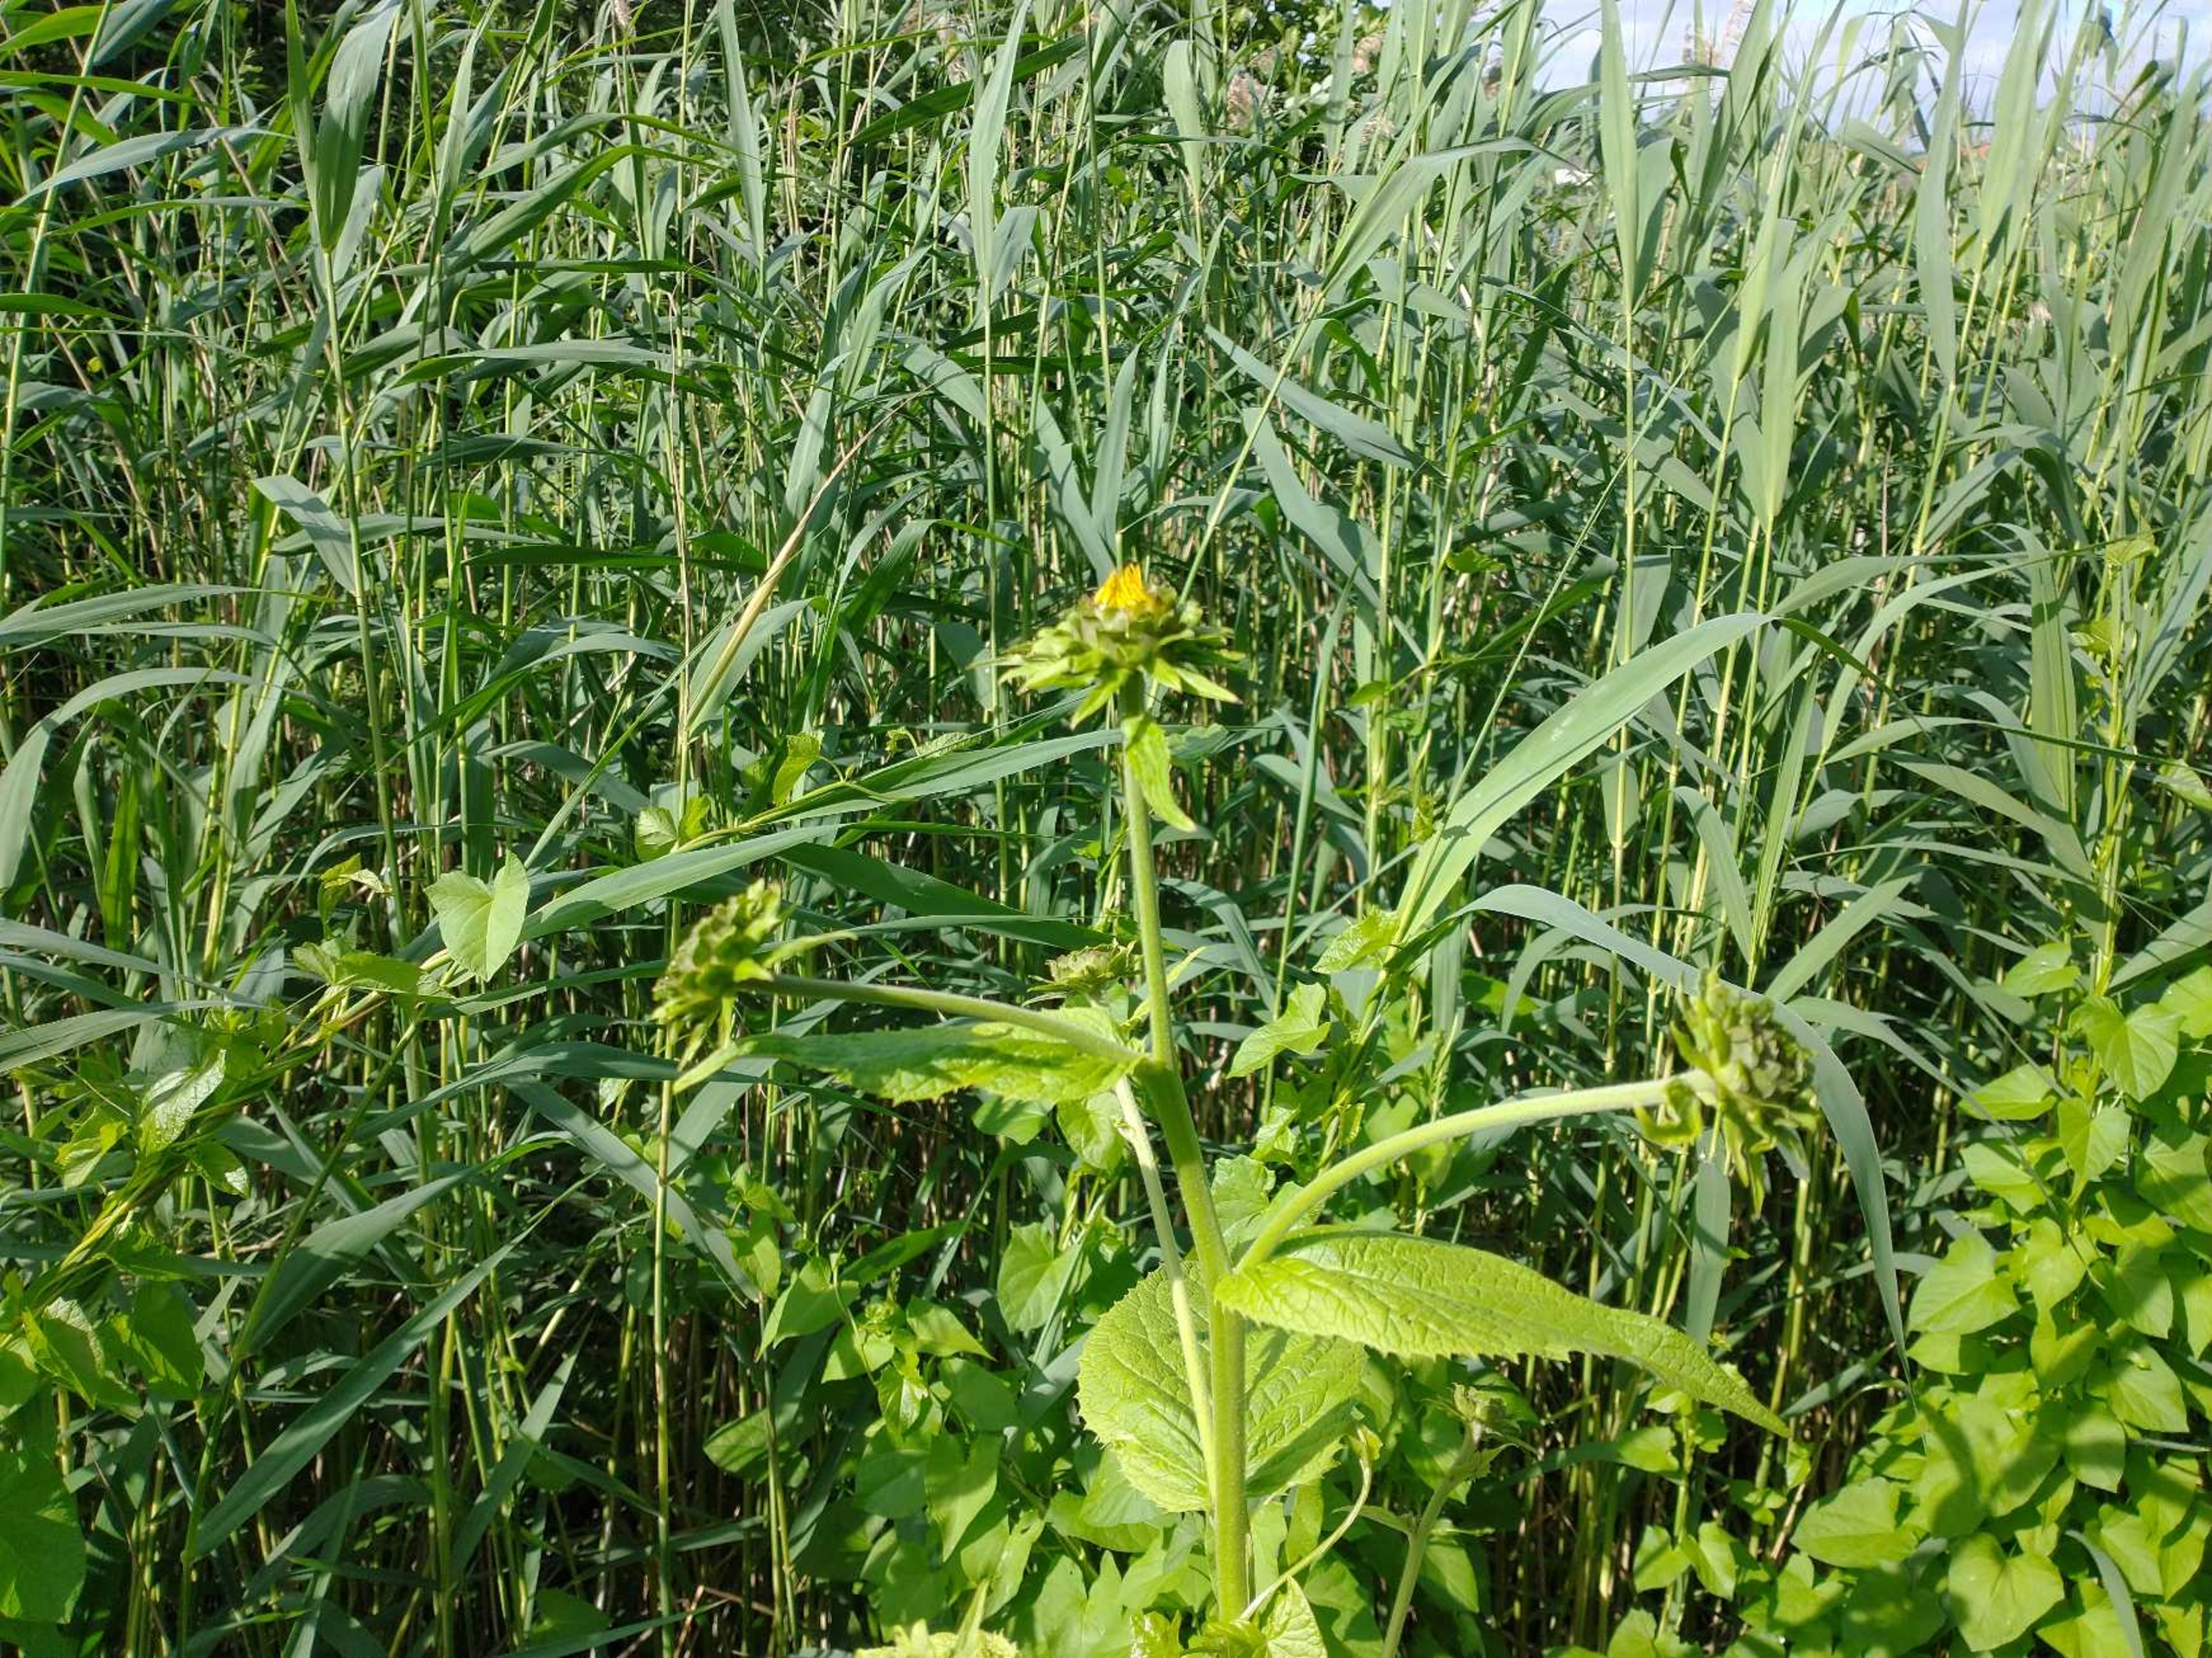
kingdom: Plantae
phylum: Tracheophyta
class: Magnoliopsida
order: Asterales
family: Asteraceae
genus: Telekia
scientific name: Telekia speciosa
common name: Tusindstråle
